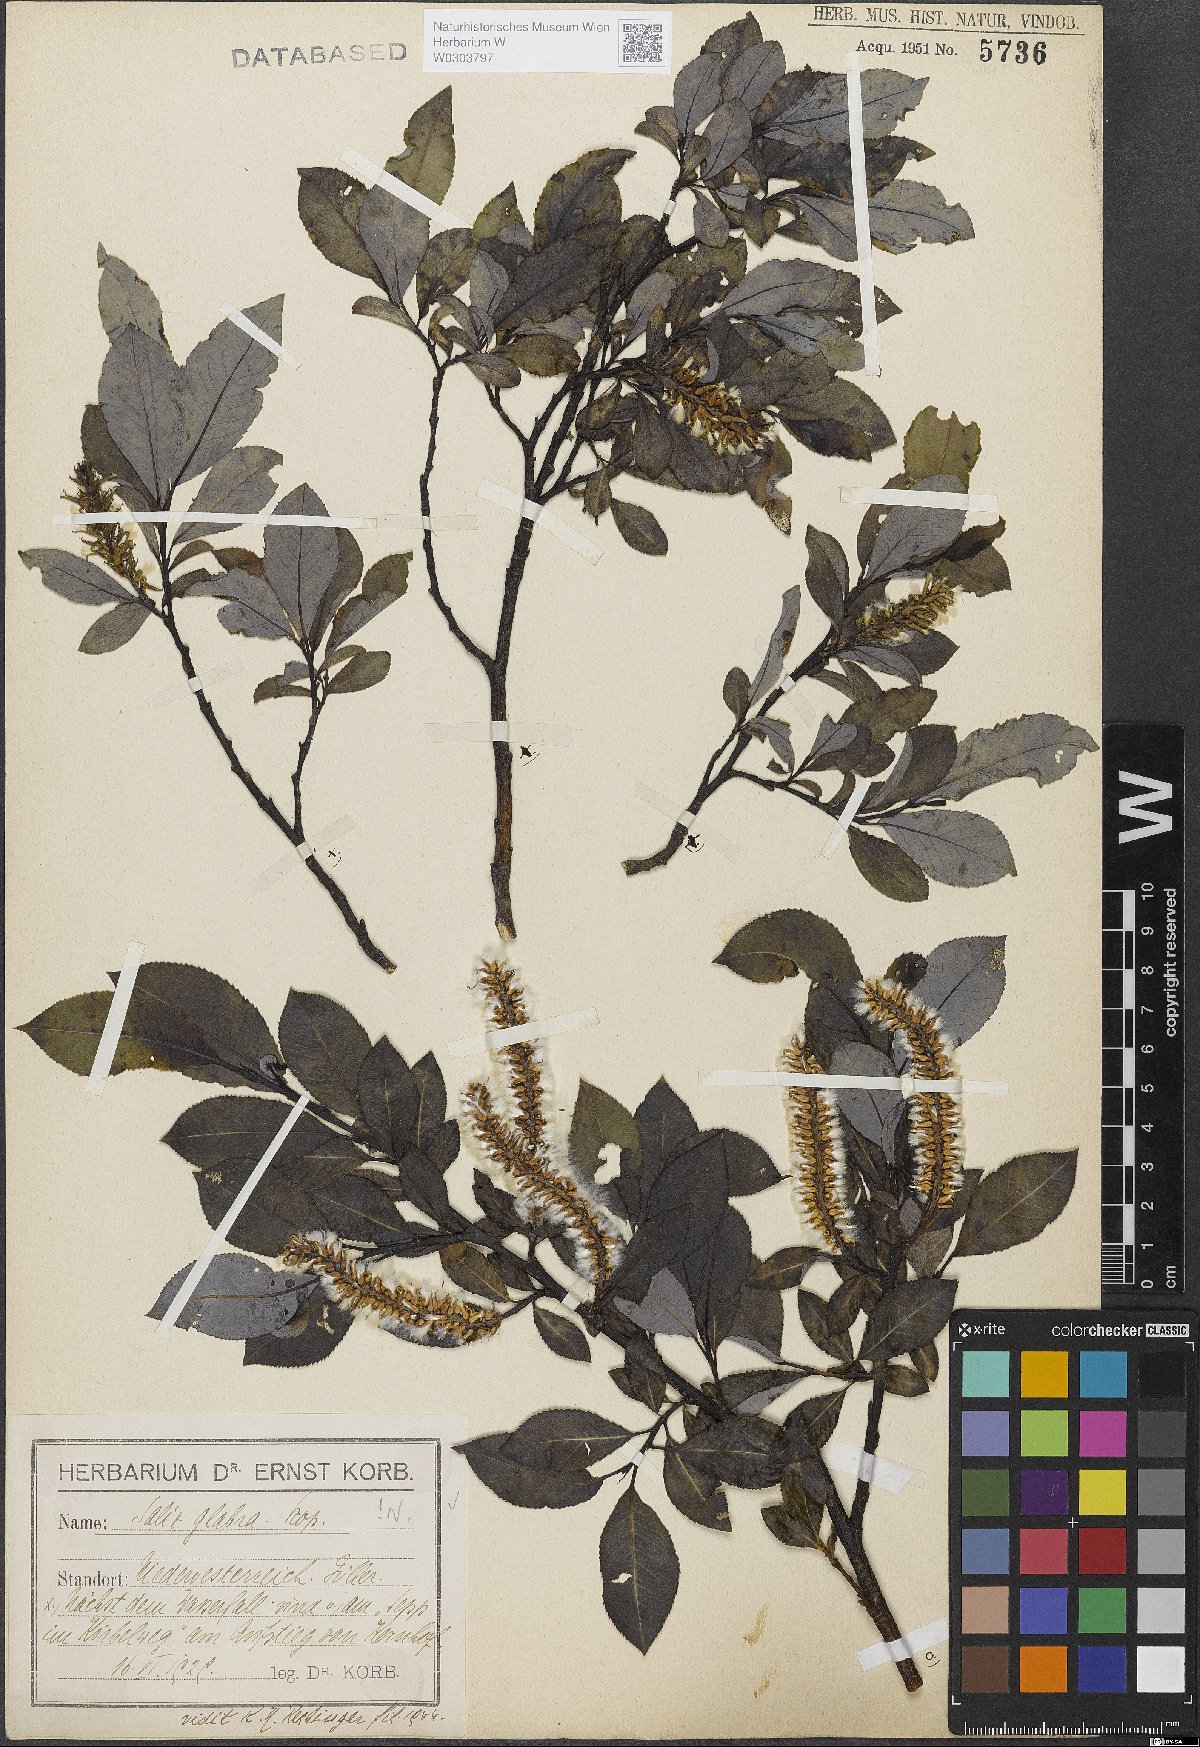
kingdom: Plantae
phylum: Tracheophyta
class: Magnoliopsida
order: Malpighiales
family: Salicaceae
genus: Salix
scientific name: Salix glabra
